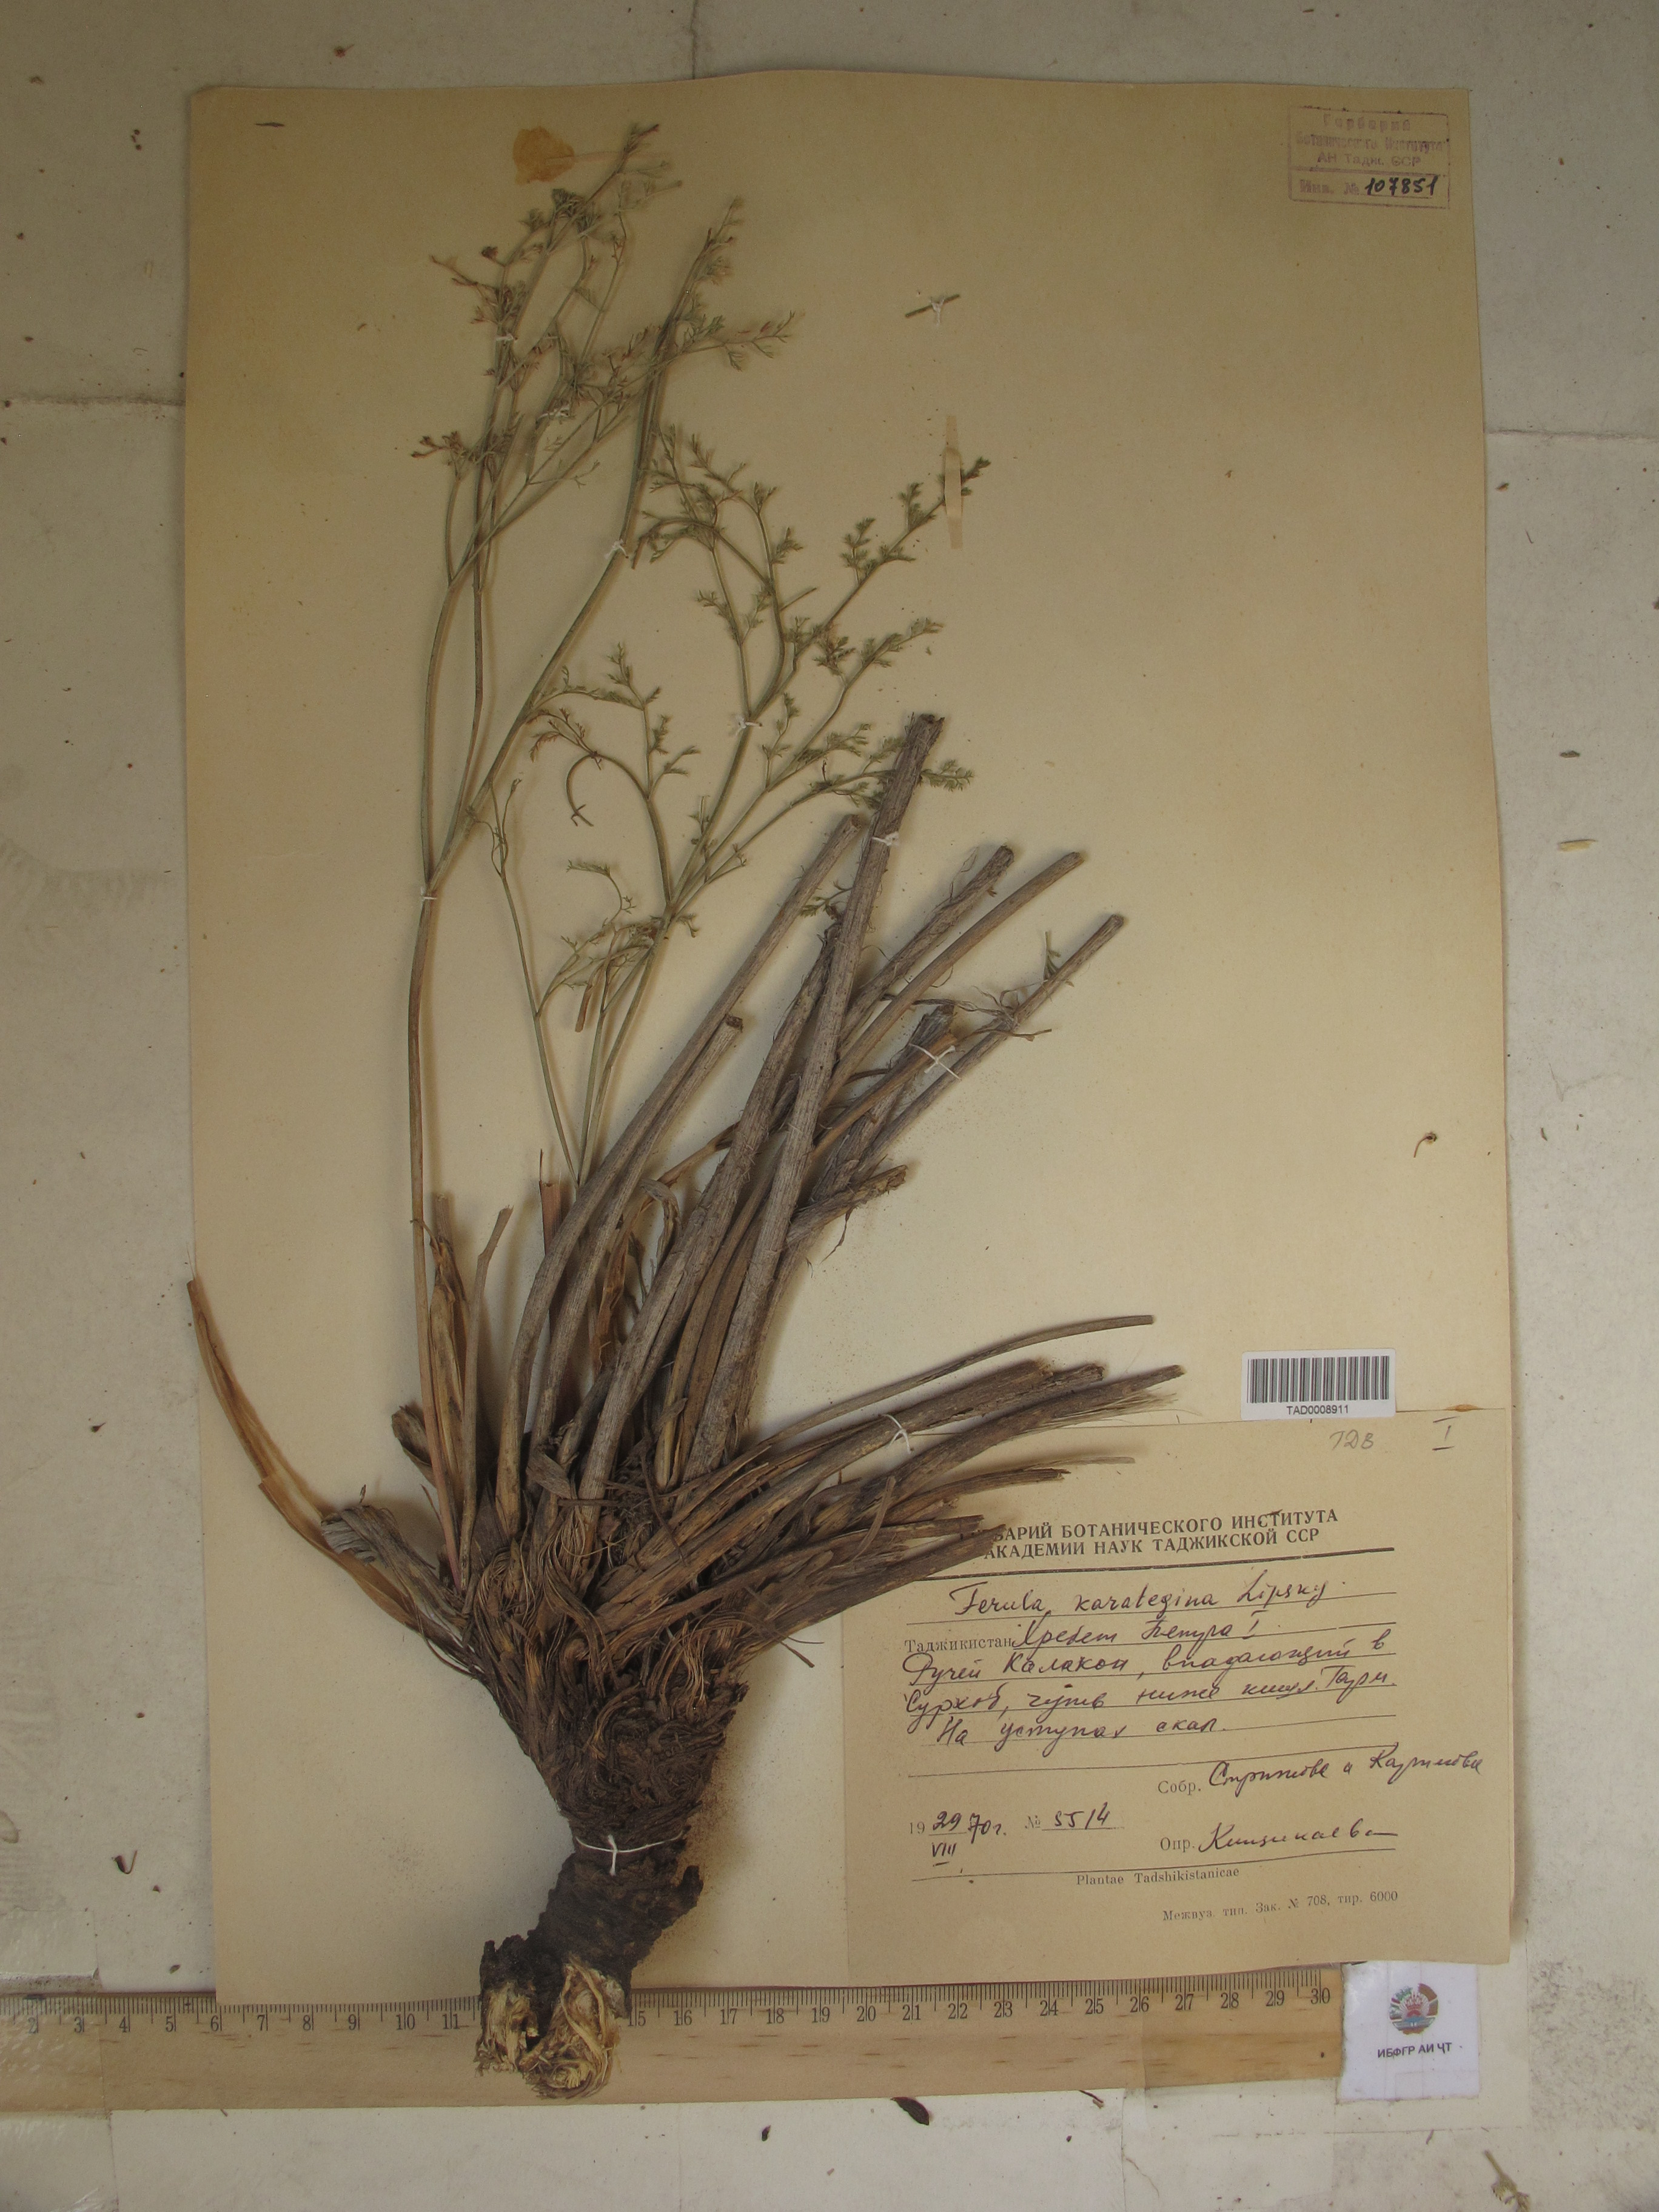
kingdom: Plantae
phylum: Tracheophyta
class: Magnoliopsida
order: Apiales
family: Apiaceae
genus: Ferula
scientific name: Ferula karategina
